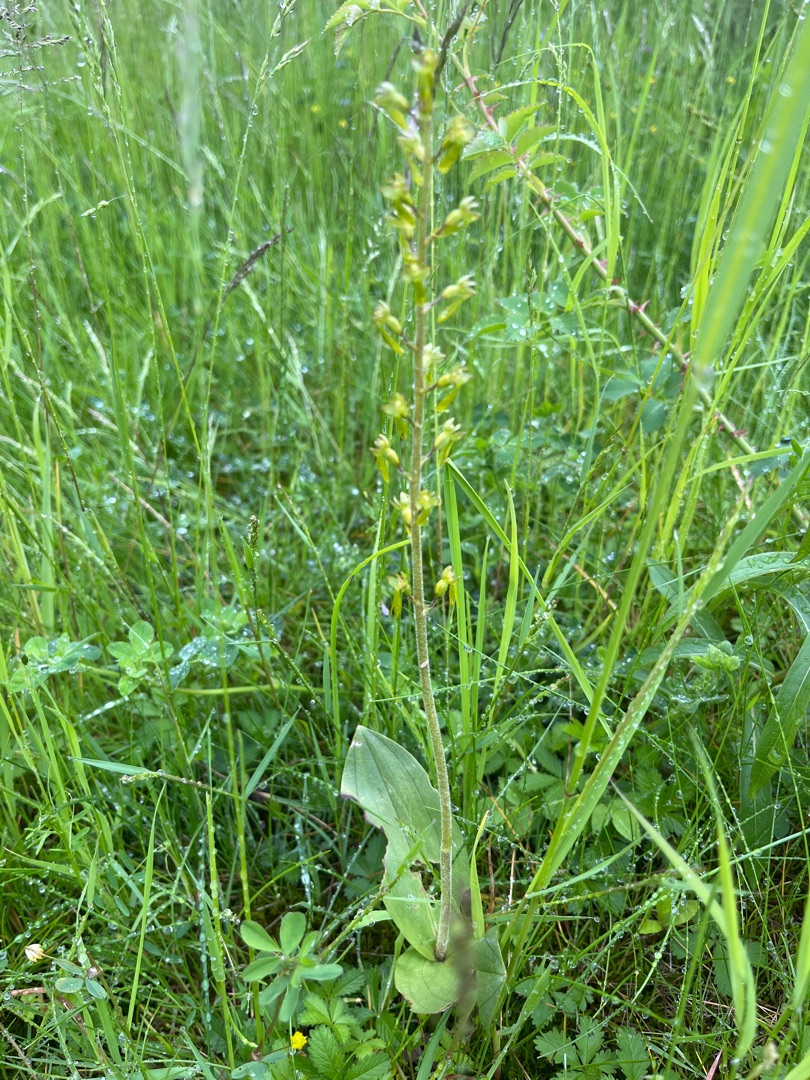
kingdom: Plantae
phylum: Tracheophyta
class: Liliopsida
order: Asparagales
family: Orchidaceae
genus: Neottia
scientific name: Neottia ovata
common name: Ægbladet fliglæbe
